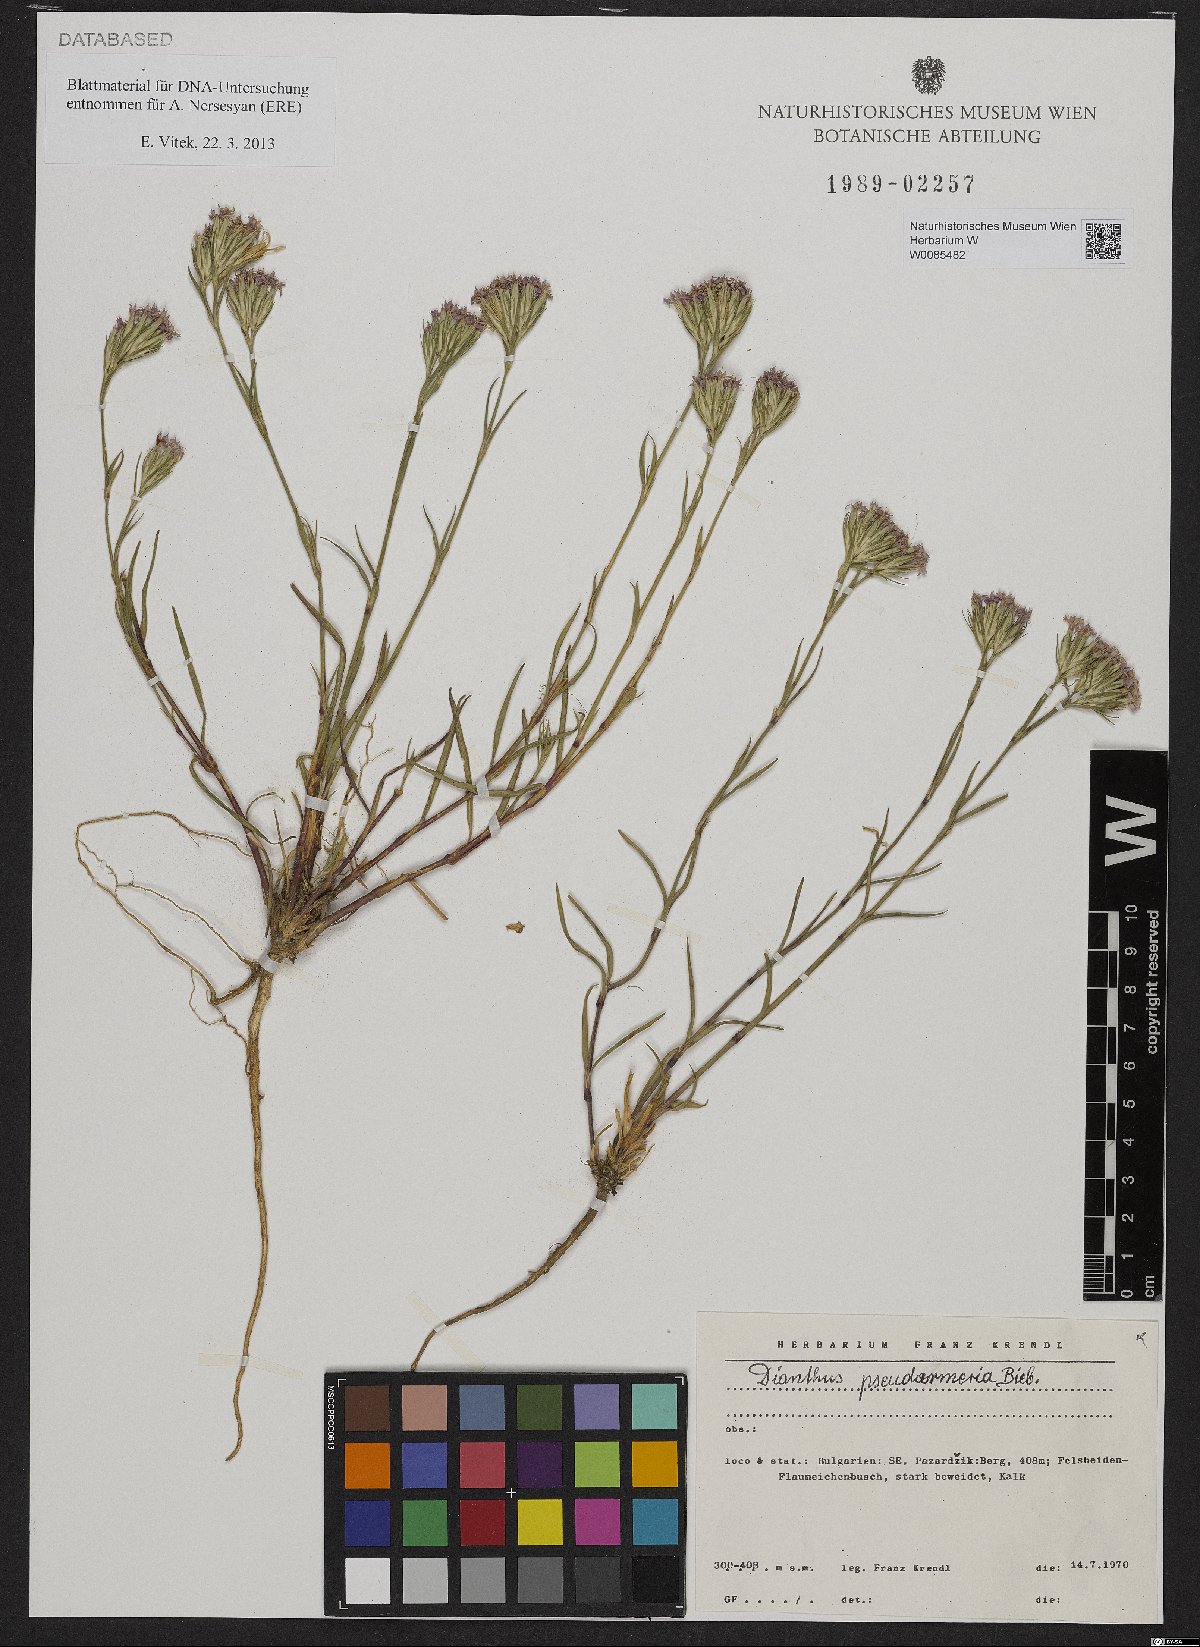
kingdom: Plantae
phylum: Tracheophyta
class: Magnoliopsida
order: Caryophyllales
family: Caryophyllaceae
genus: Dianthus
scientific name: Dianthus pseudarmeria
